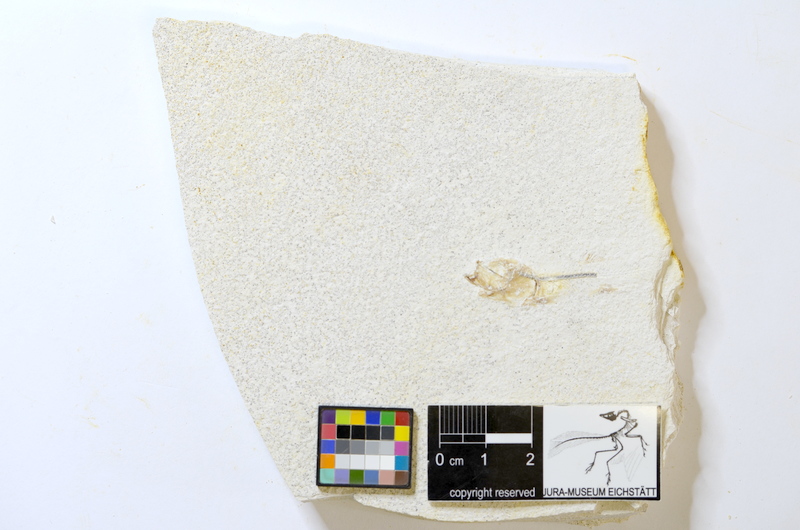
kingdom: Animalia
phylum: Chordata
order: Salmoniformes
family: Orthogonikleithridae
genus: Orthogonikleithrus
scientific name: Orthogonikleithrus hoelli
